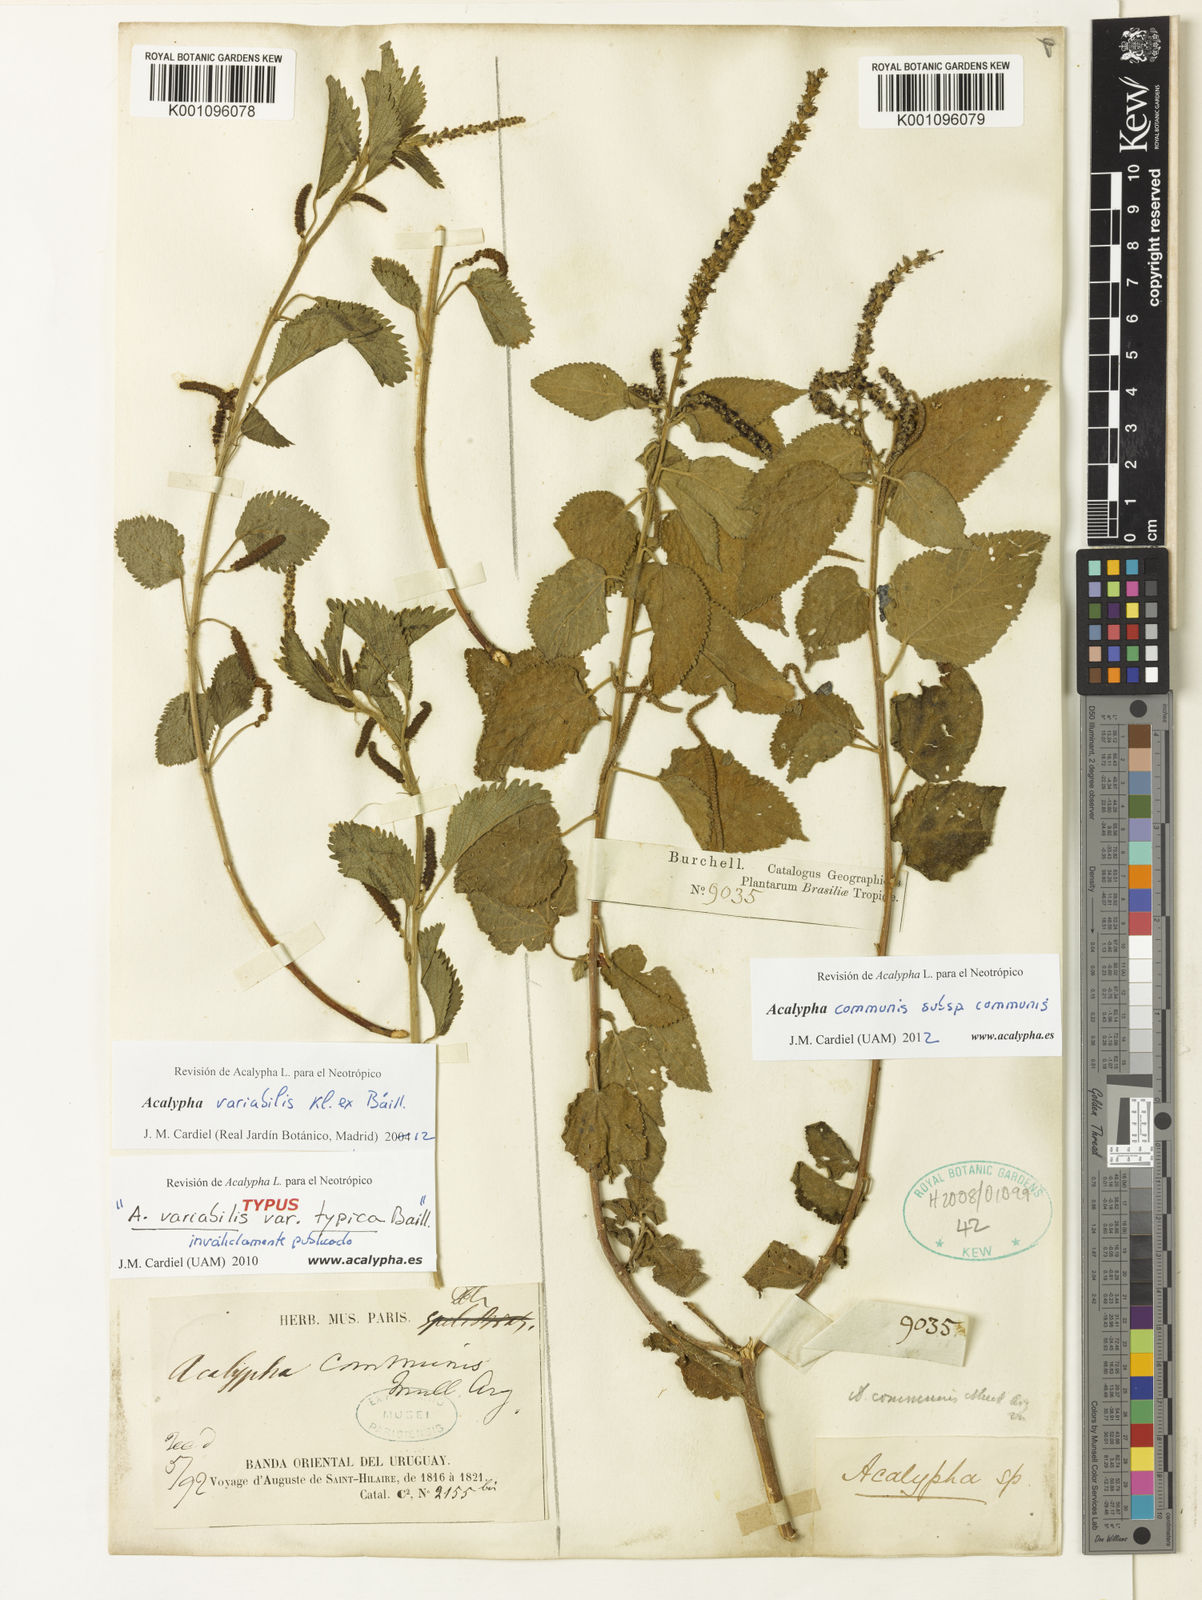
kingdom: Plantae
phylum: Tracheophyta
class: Magnoliopsida
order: Malpighiales
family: Euphorbiaceae
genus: Acalypha
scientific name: Acalypha variabilis
